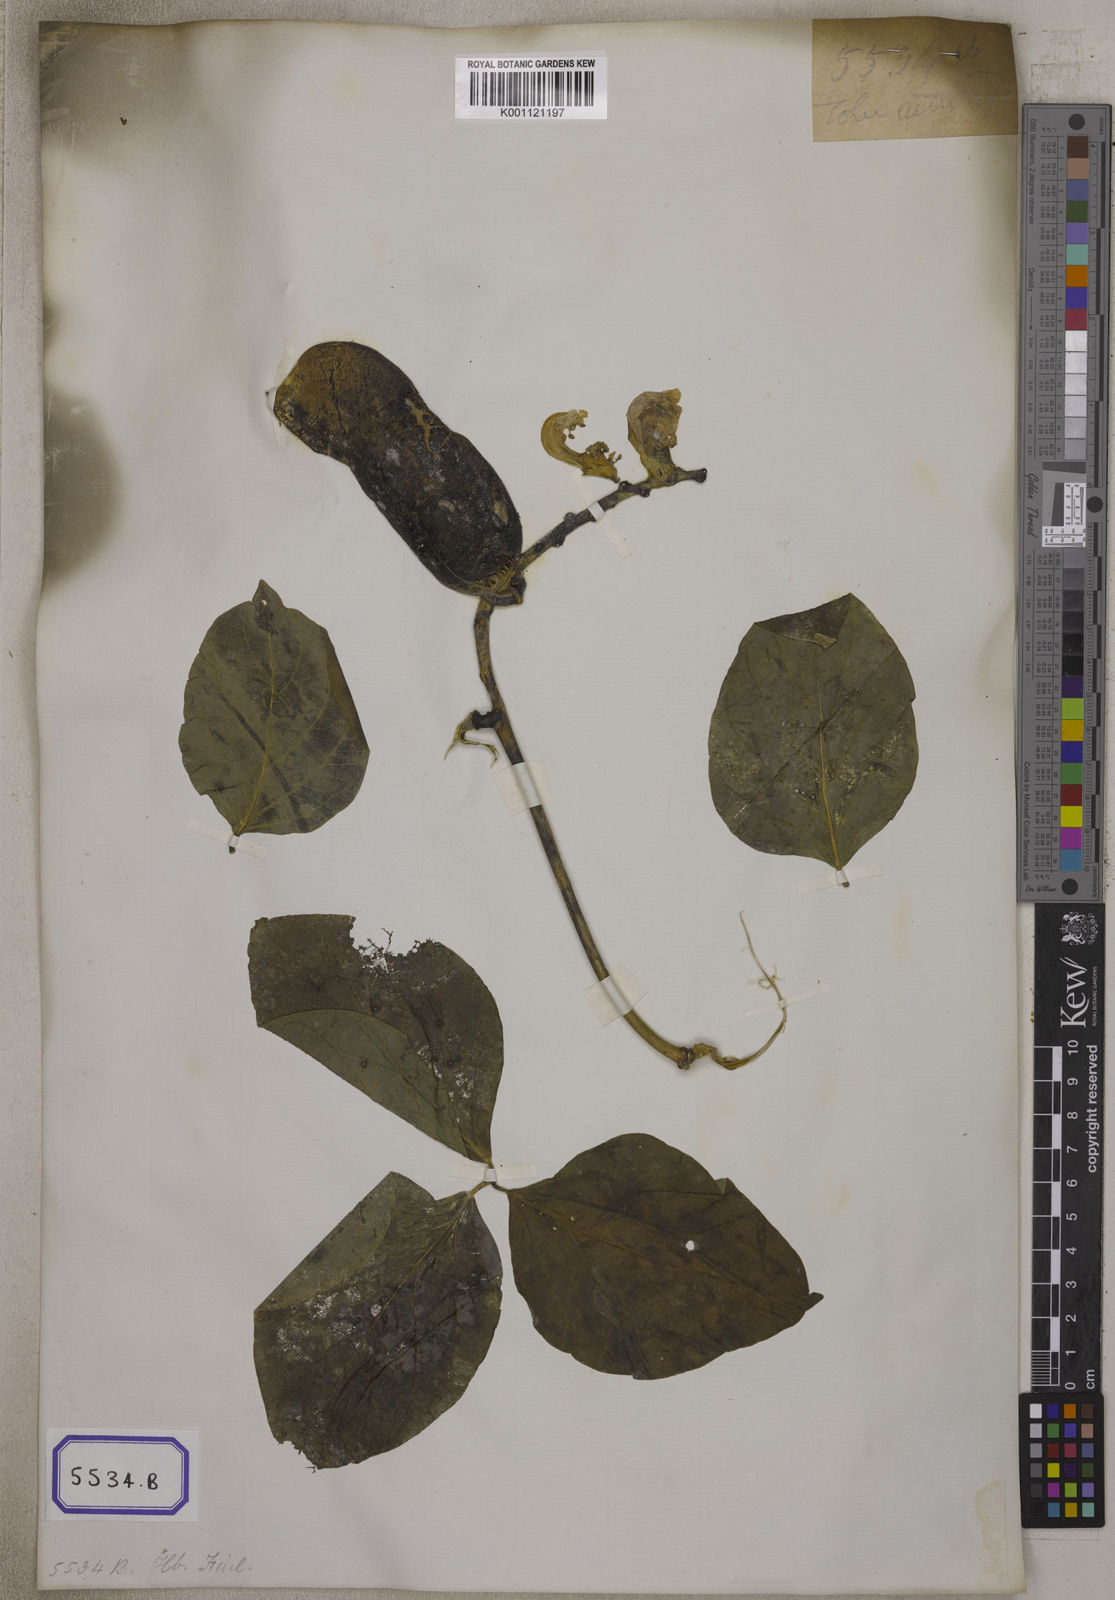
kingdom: Plantae
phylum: Tracheophyta
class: Magnoliopsida
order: Fabales
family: Fabaceae
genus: Canavalia
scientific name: Canavalia
